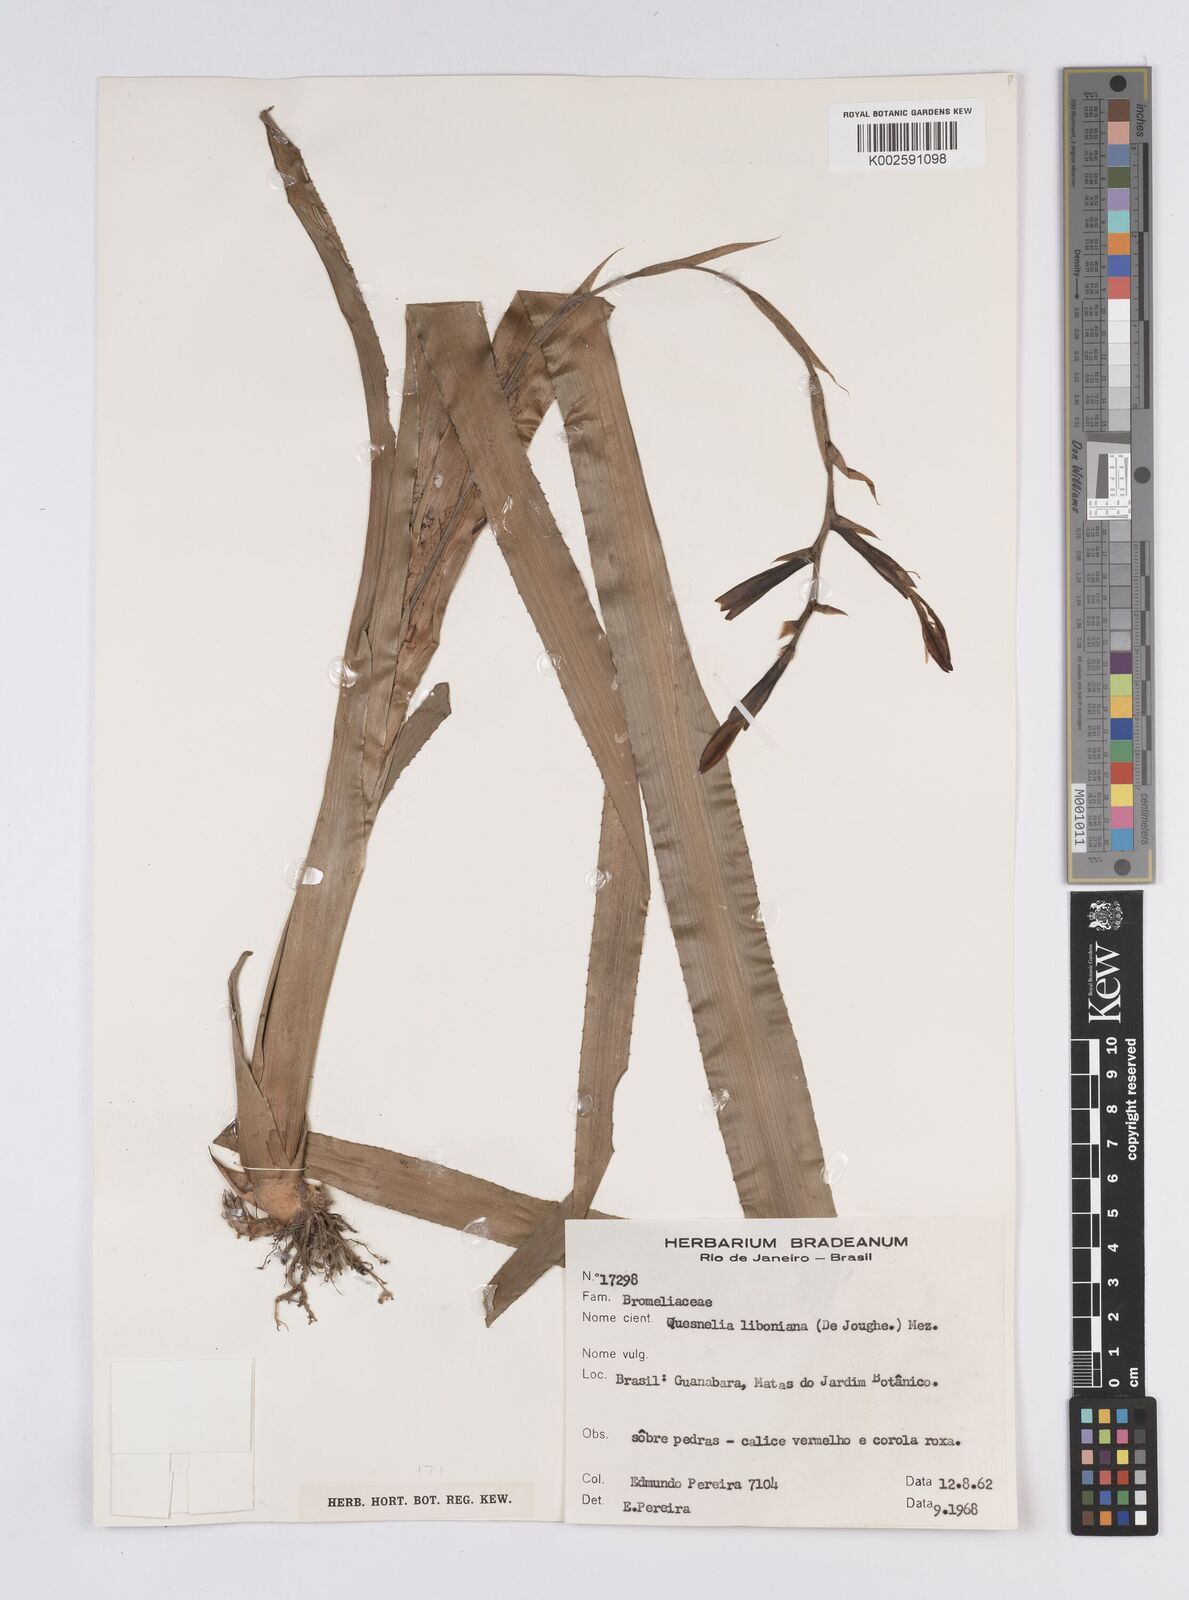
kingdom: Plantae
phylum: Tracheophyta
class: Liliopsida
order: Poales
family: Bromeliaceae
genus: Quesnelia
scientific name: Quesnelia liboniana
